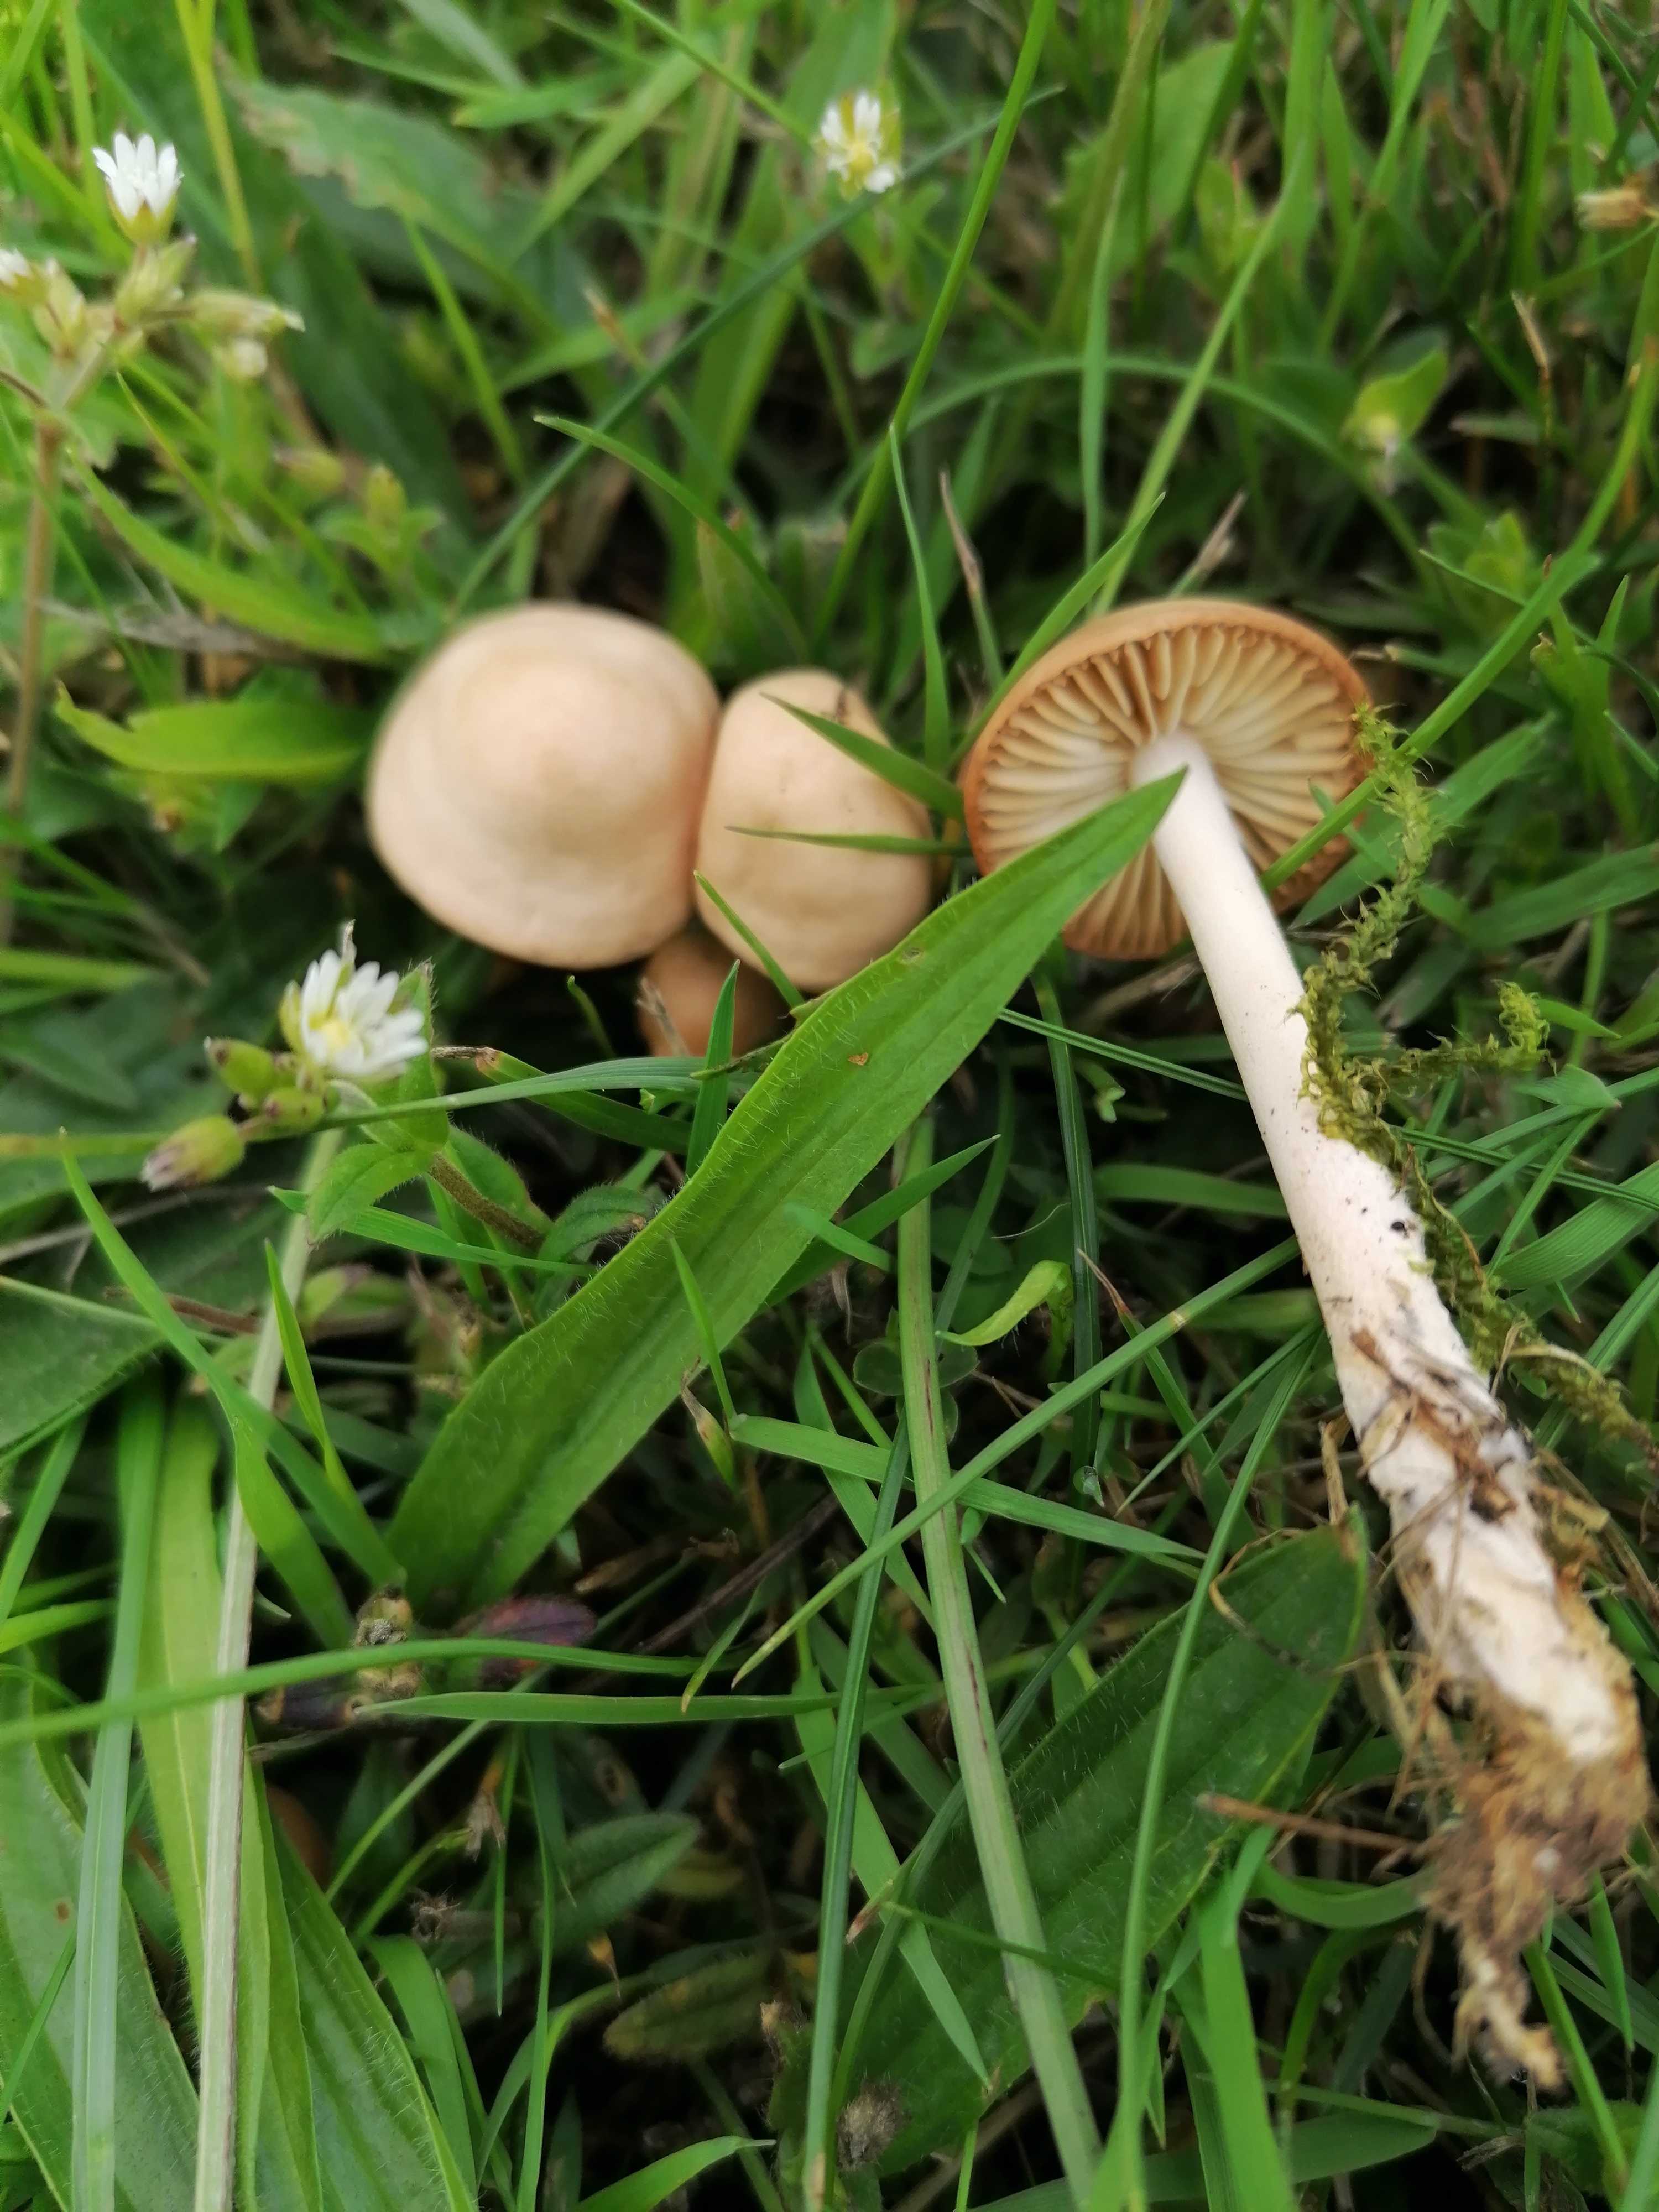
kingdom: Fungi
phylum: Basidiomycota
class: Agaricomycetes
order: Agaricales
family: Marasmiaceae
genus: Marasmius
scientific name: Marasmius oreades
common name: elledans-bruskhat
